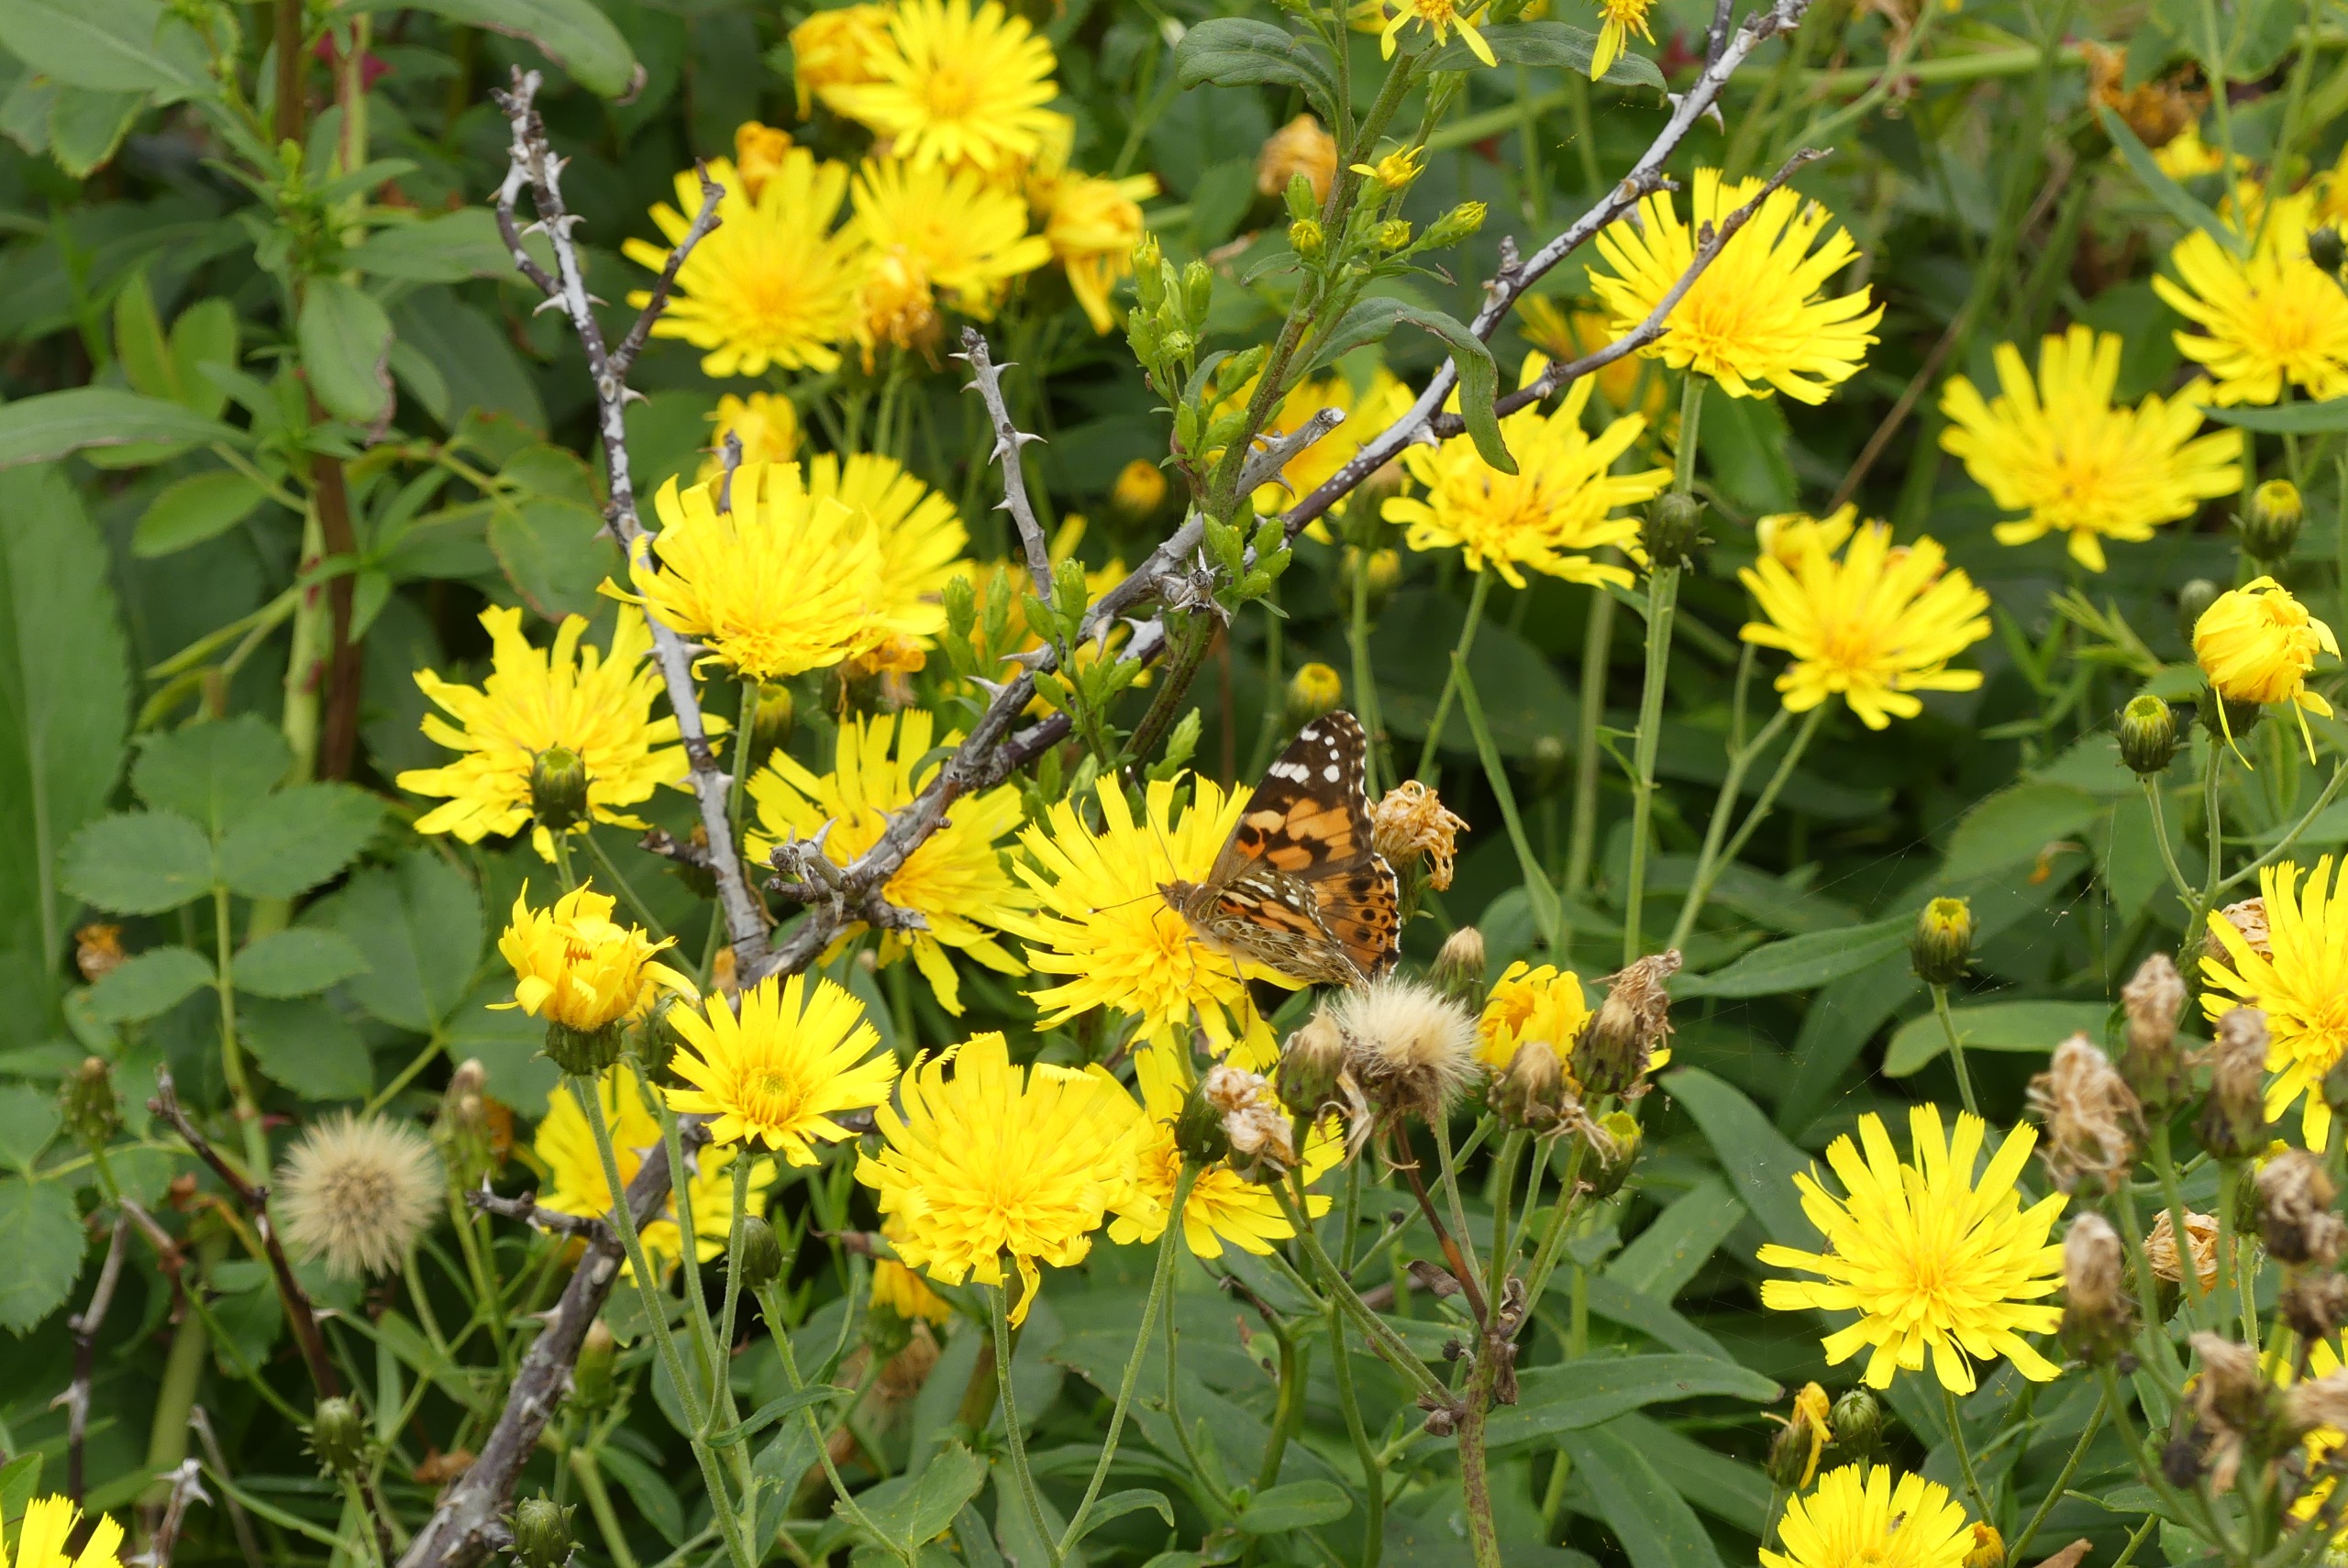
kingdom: Animalia
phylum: Arthropoda
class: Insecta
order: Lepidoptera
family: Nymphalidae
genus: Vanessa
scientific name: Vanessa cardui
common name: Tidselsommerfugl
